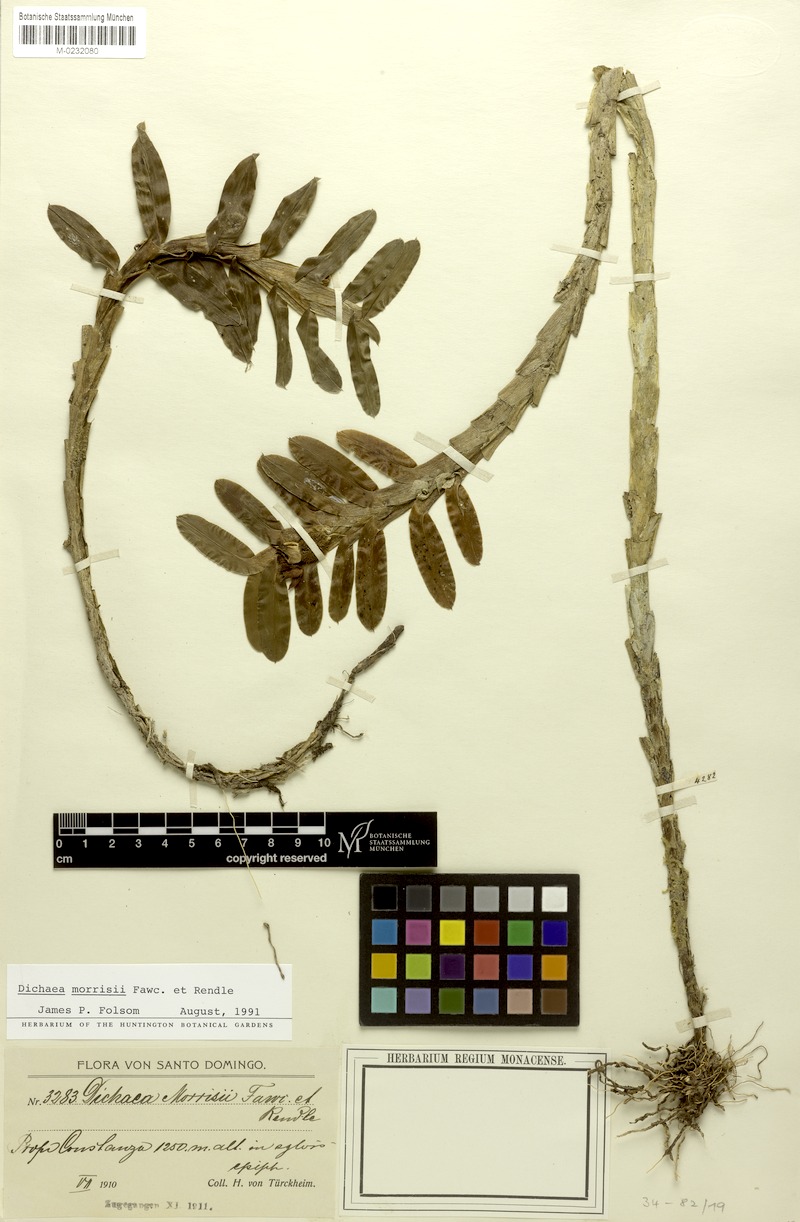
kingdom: Plantae
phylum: Tracheophyta
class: Liliopsida
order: Asparagales
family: Orchidaceae
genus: Dichaea
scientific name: Dichaea morrisii
